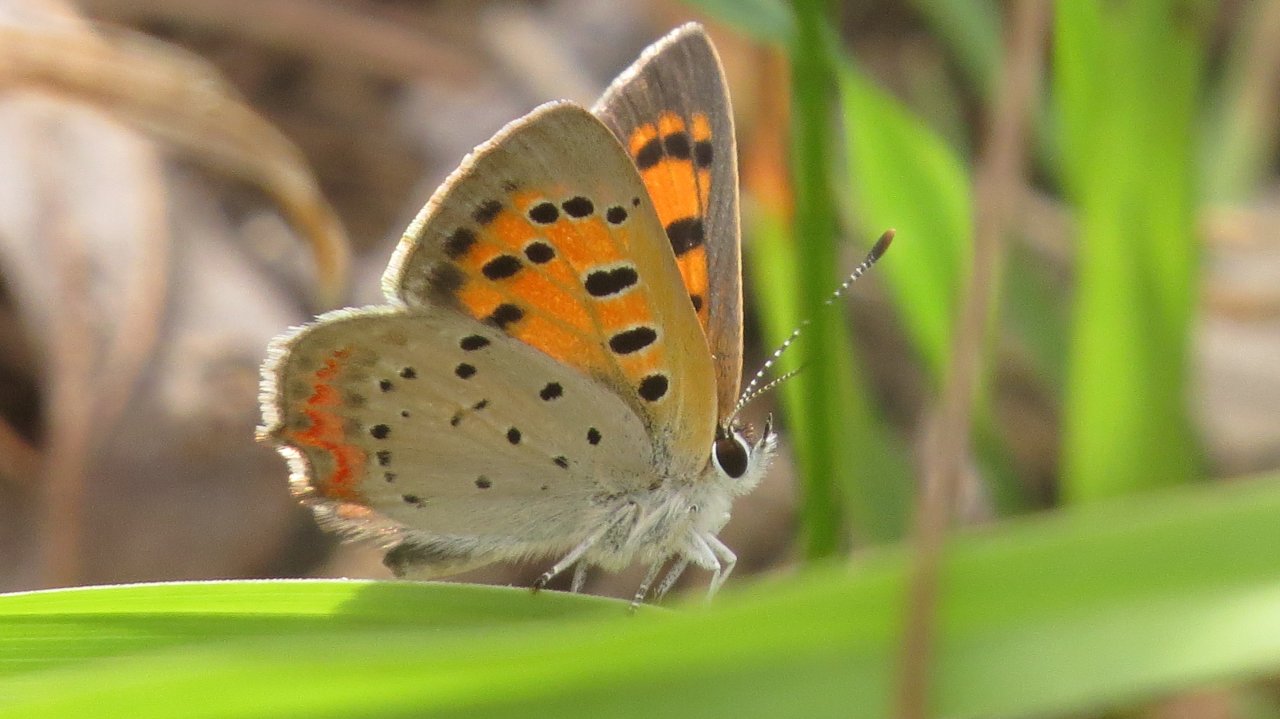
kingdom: Animalia
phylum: Arthropoda
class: Insecta
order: Lepidoptera
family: Lycaenidae
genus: Lycaena
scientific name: Lycaena phlaeas
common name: American Copper
